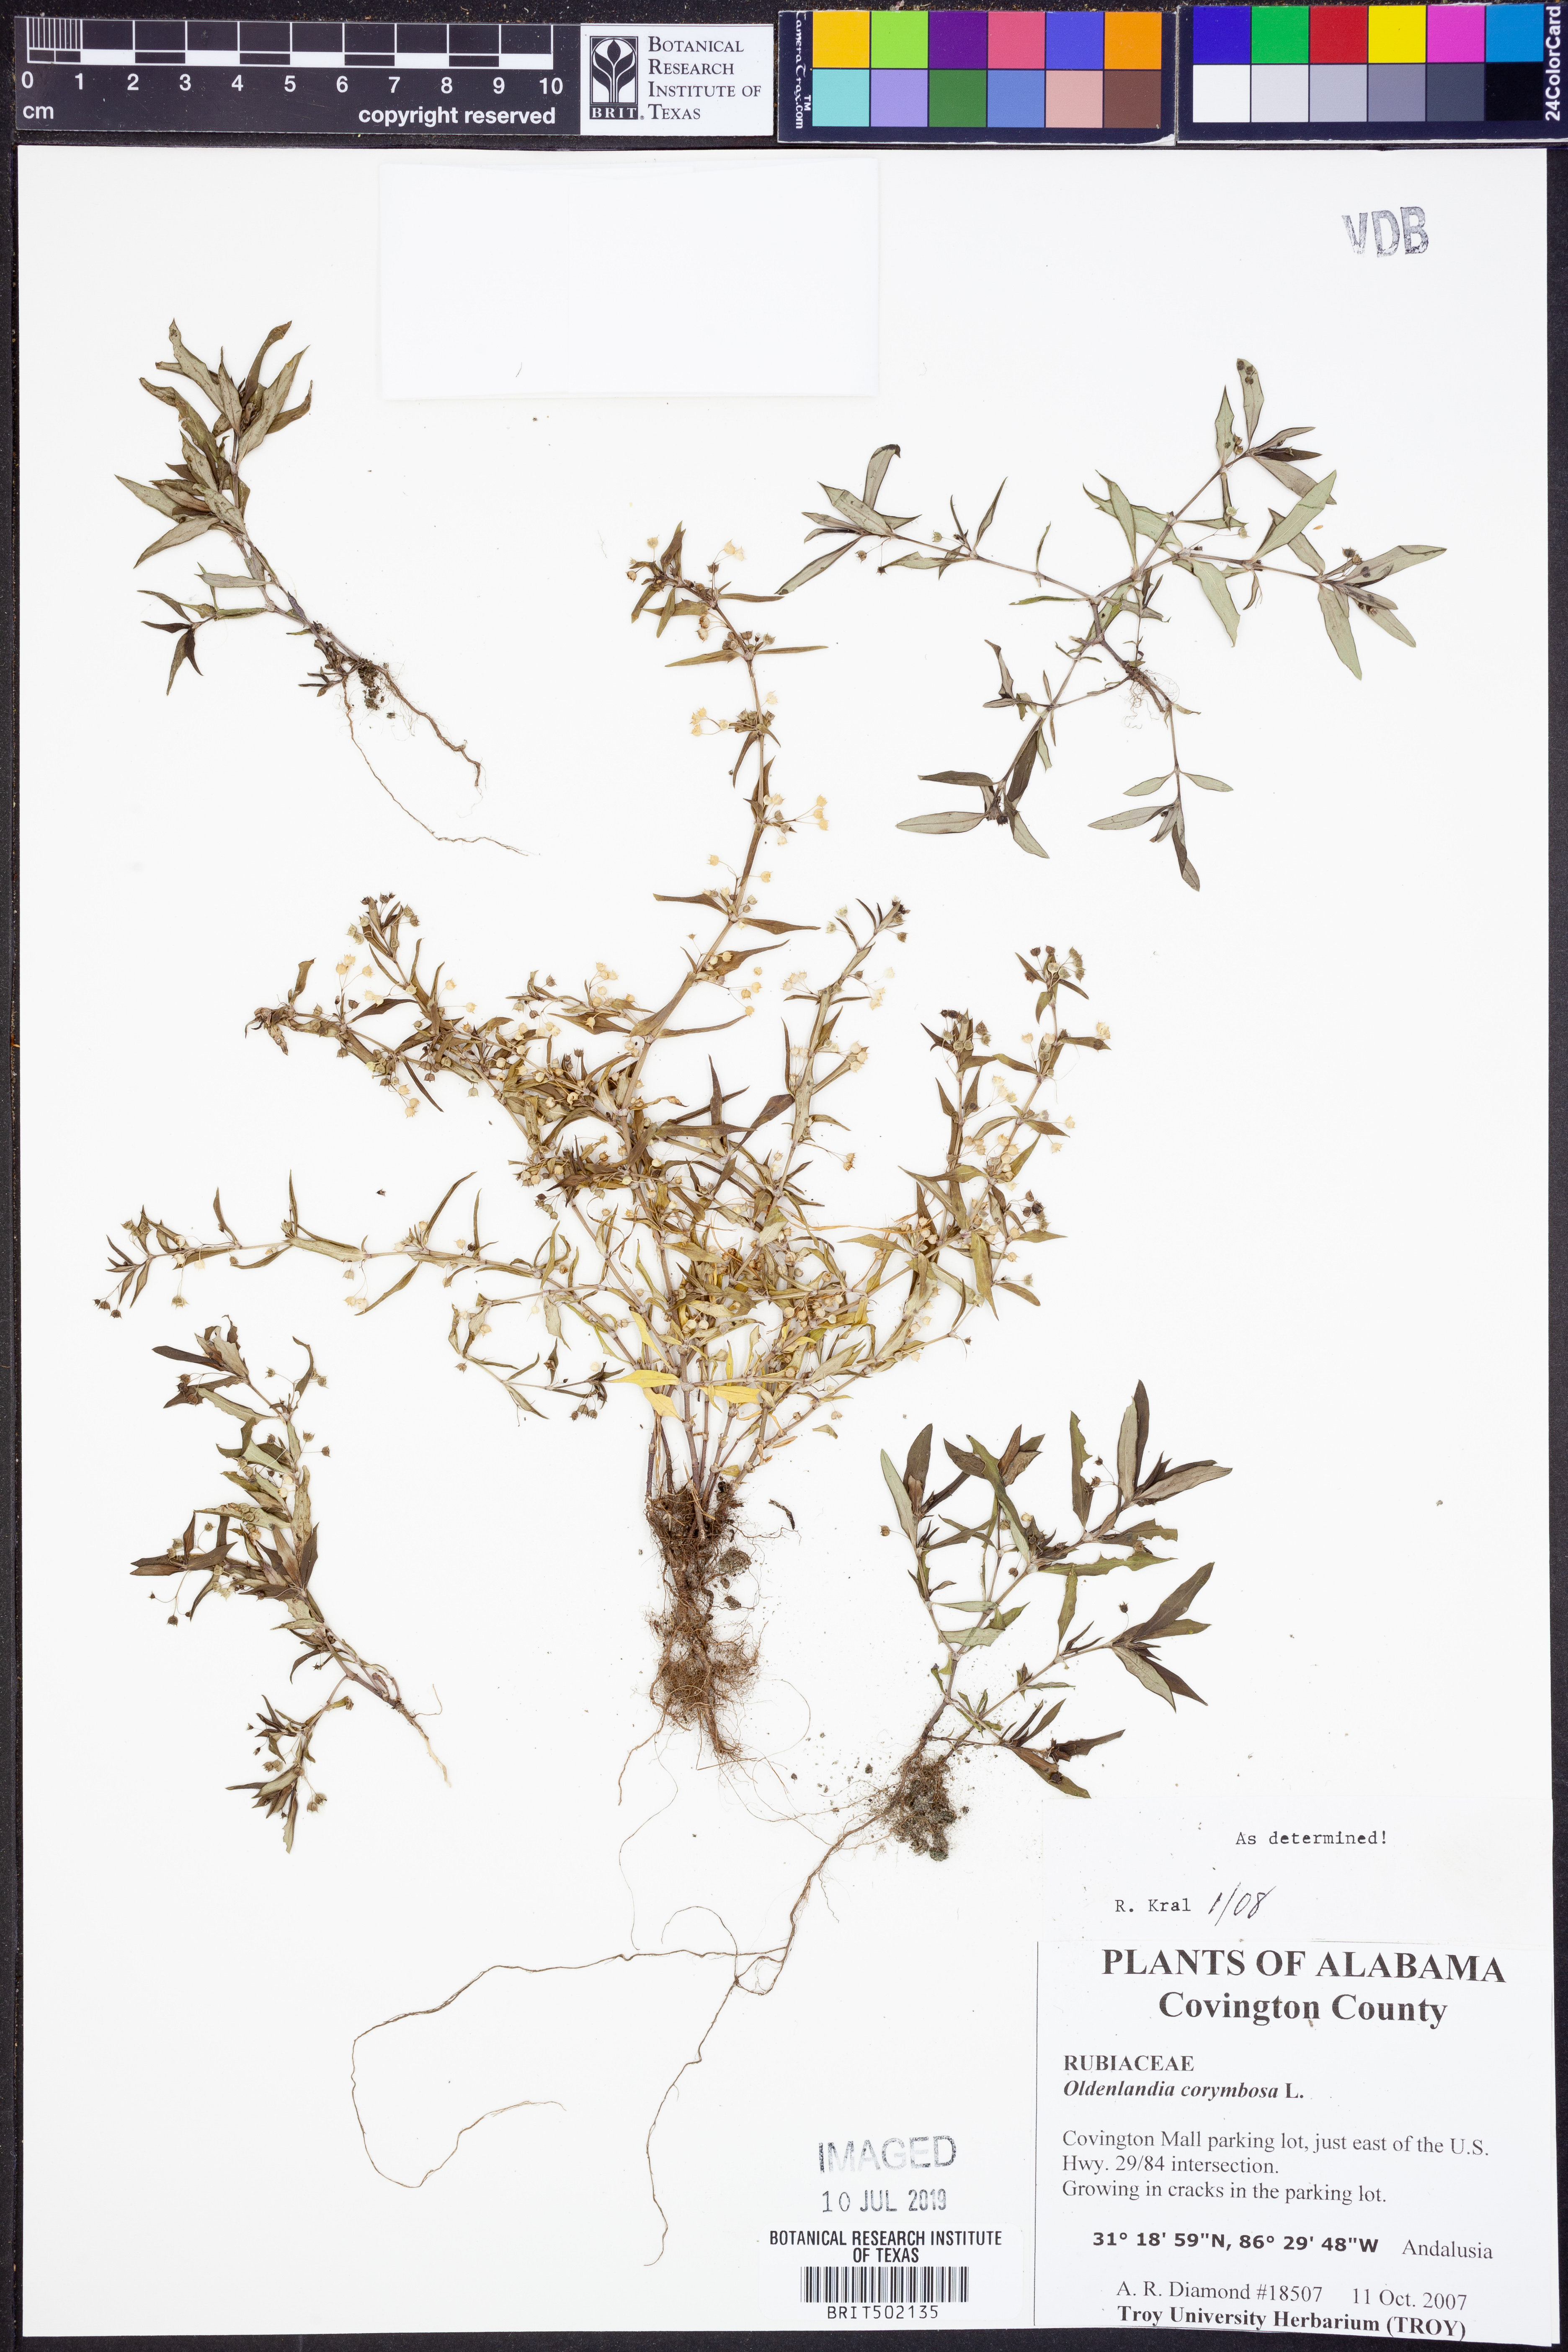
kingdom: Plantae
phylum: Tracheophyta
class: Magnoliopsida
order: Gentianales
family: Rubiaceae
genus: Oldenlandia
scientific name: Oldenlandia corymbosa
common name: Flat-top mille graines
